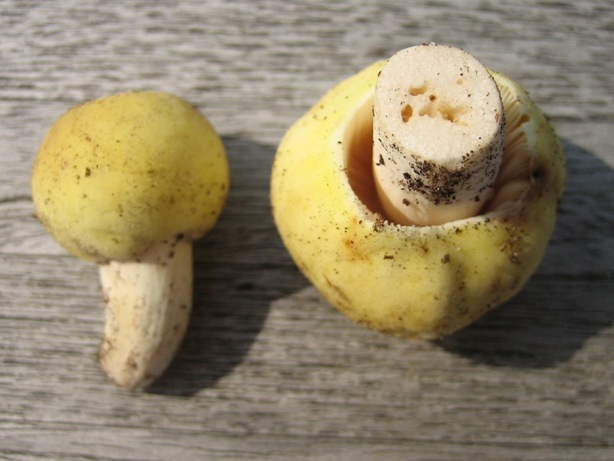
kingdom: Fungi
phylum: Basidiomycota
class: Agaricomycetes
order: Russulales
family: Russulaceae
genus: Russula
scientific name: Russula violeipes
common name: ferskengul skørhat
